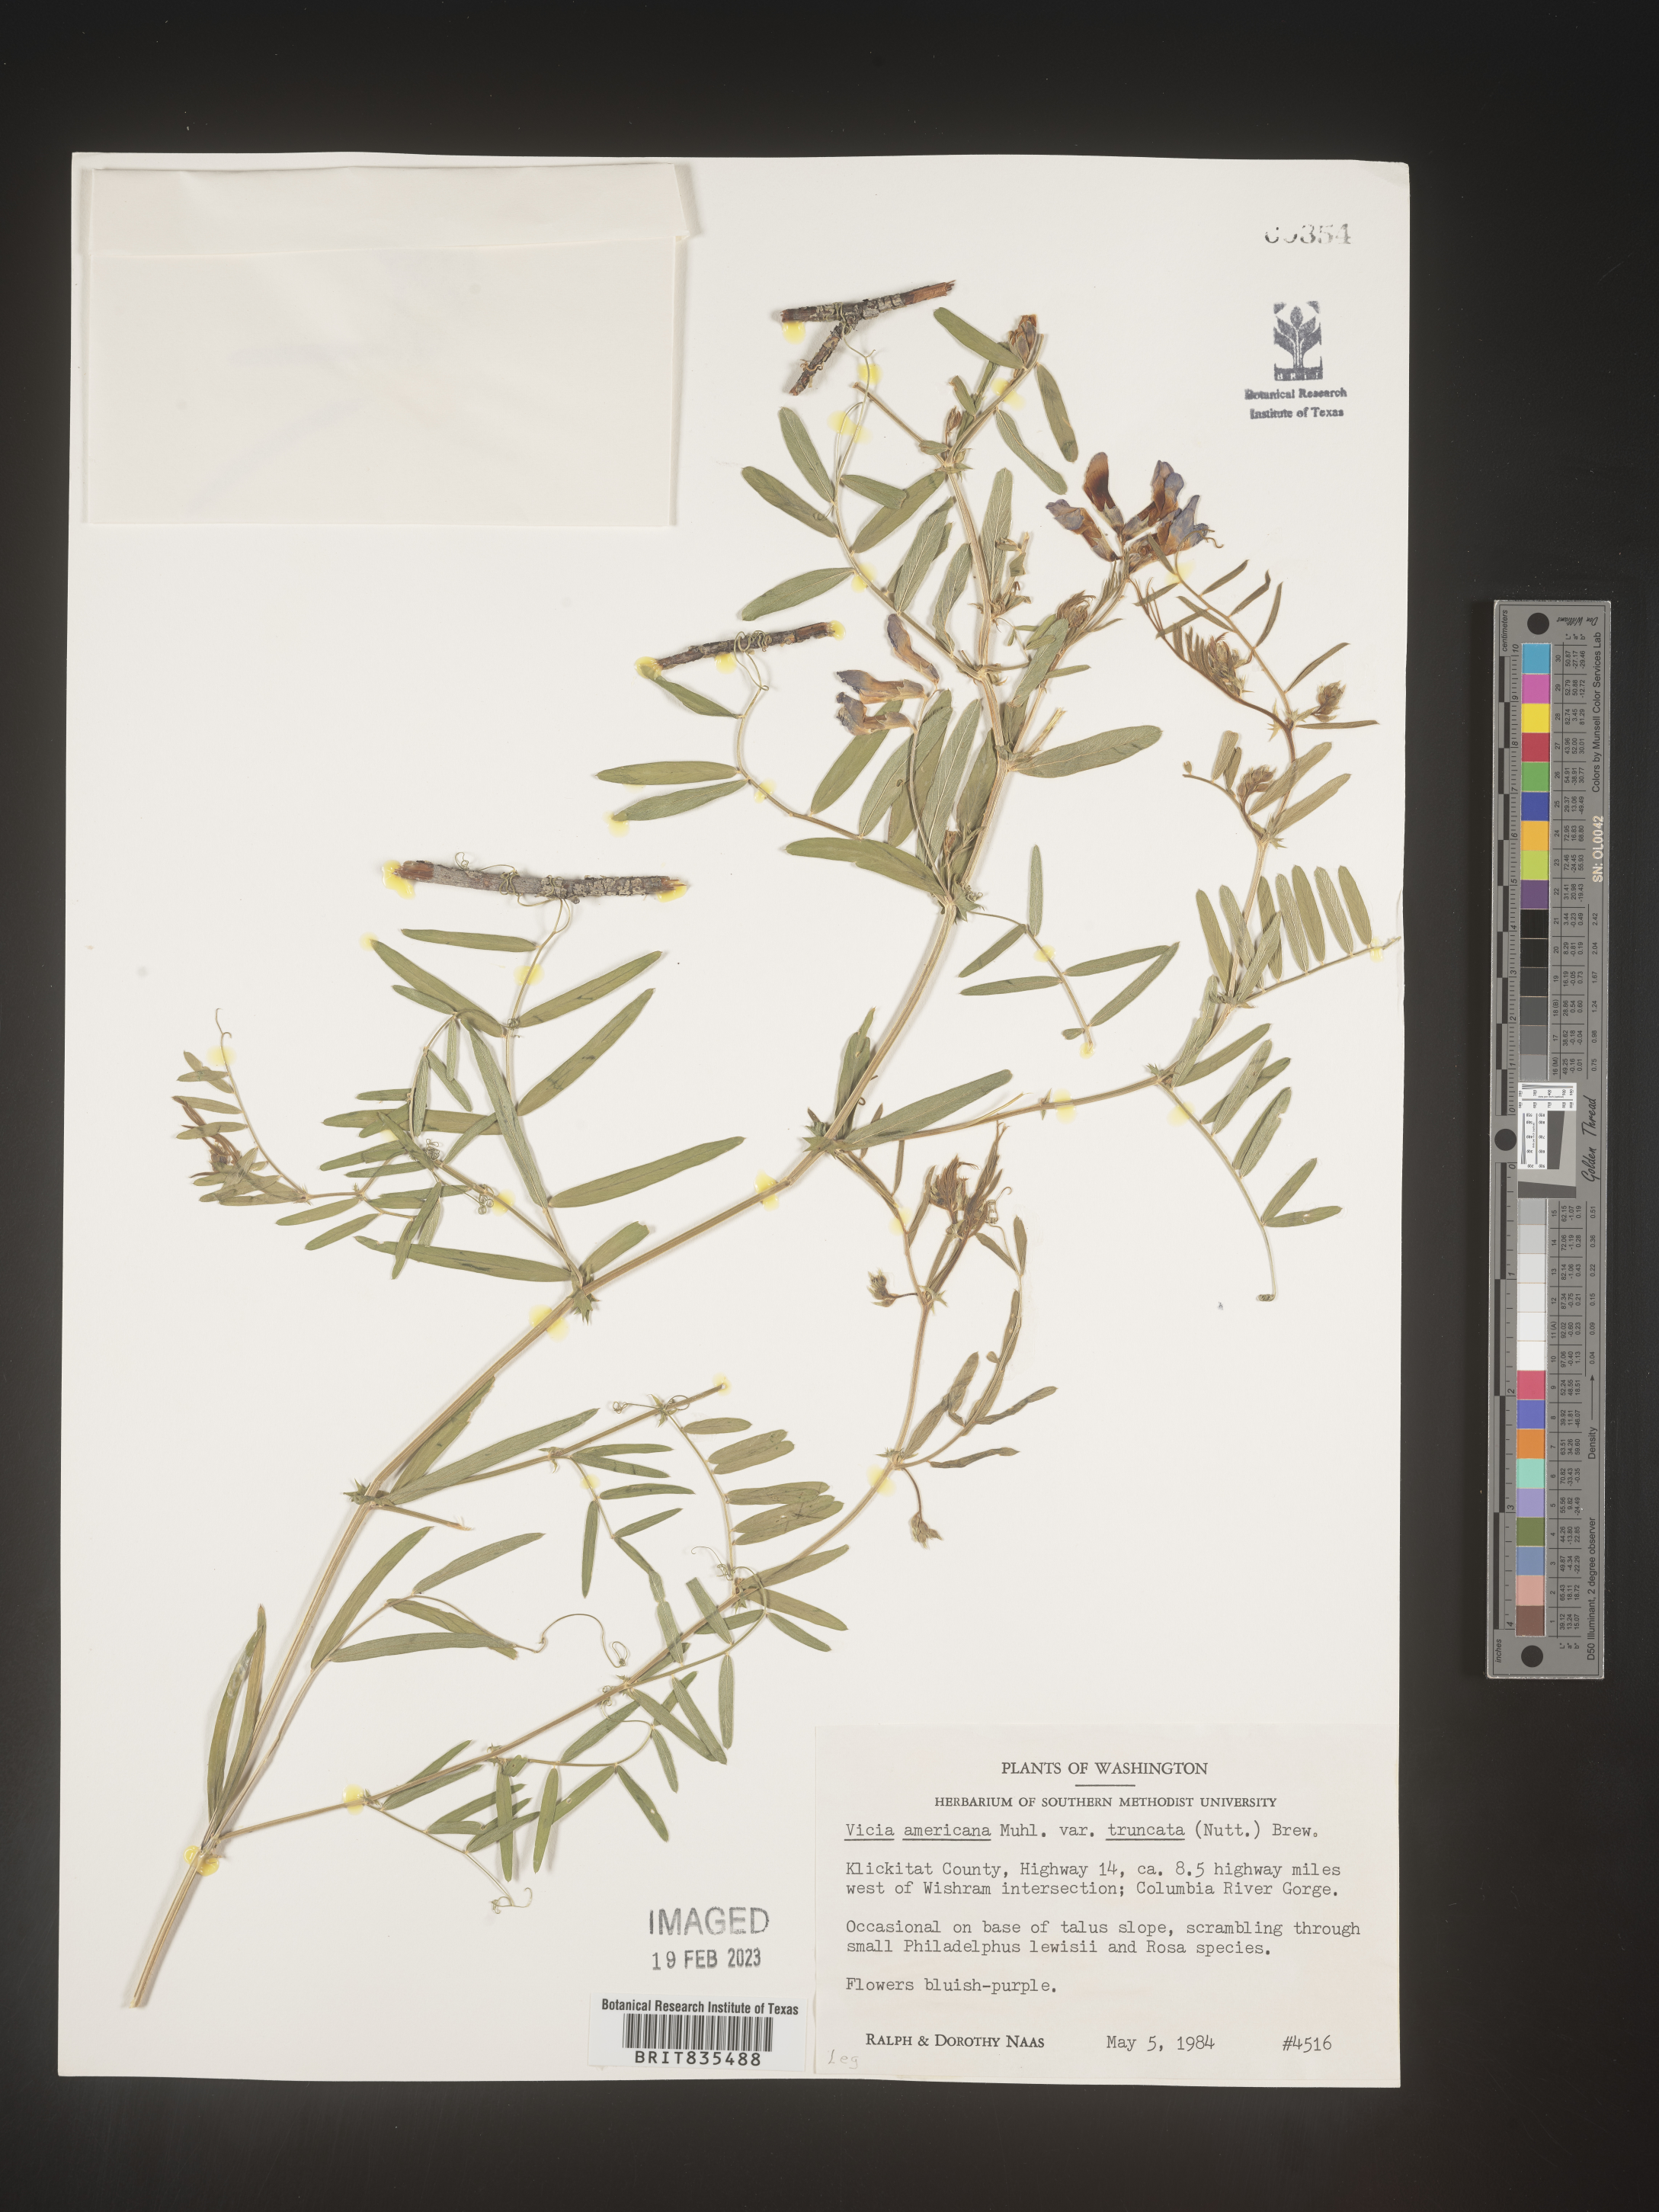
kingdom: Plantae
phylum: Tracheophyta
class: Magnoliopsida
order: Fabales
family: Fabaceae
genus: Vicia
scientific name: Vicia americana
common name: American vetch
